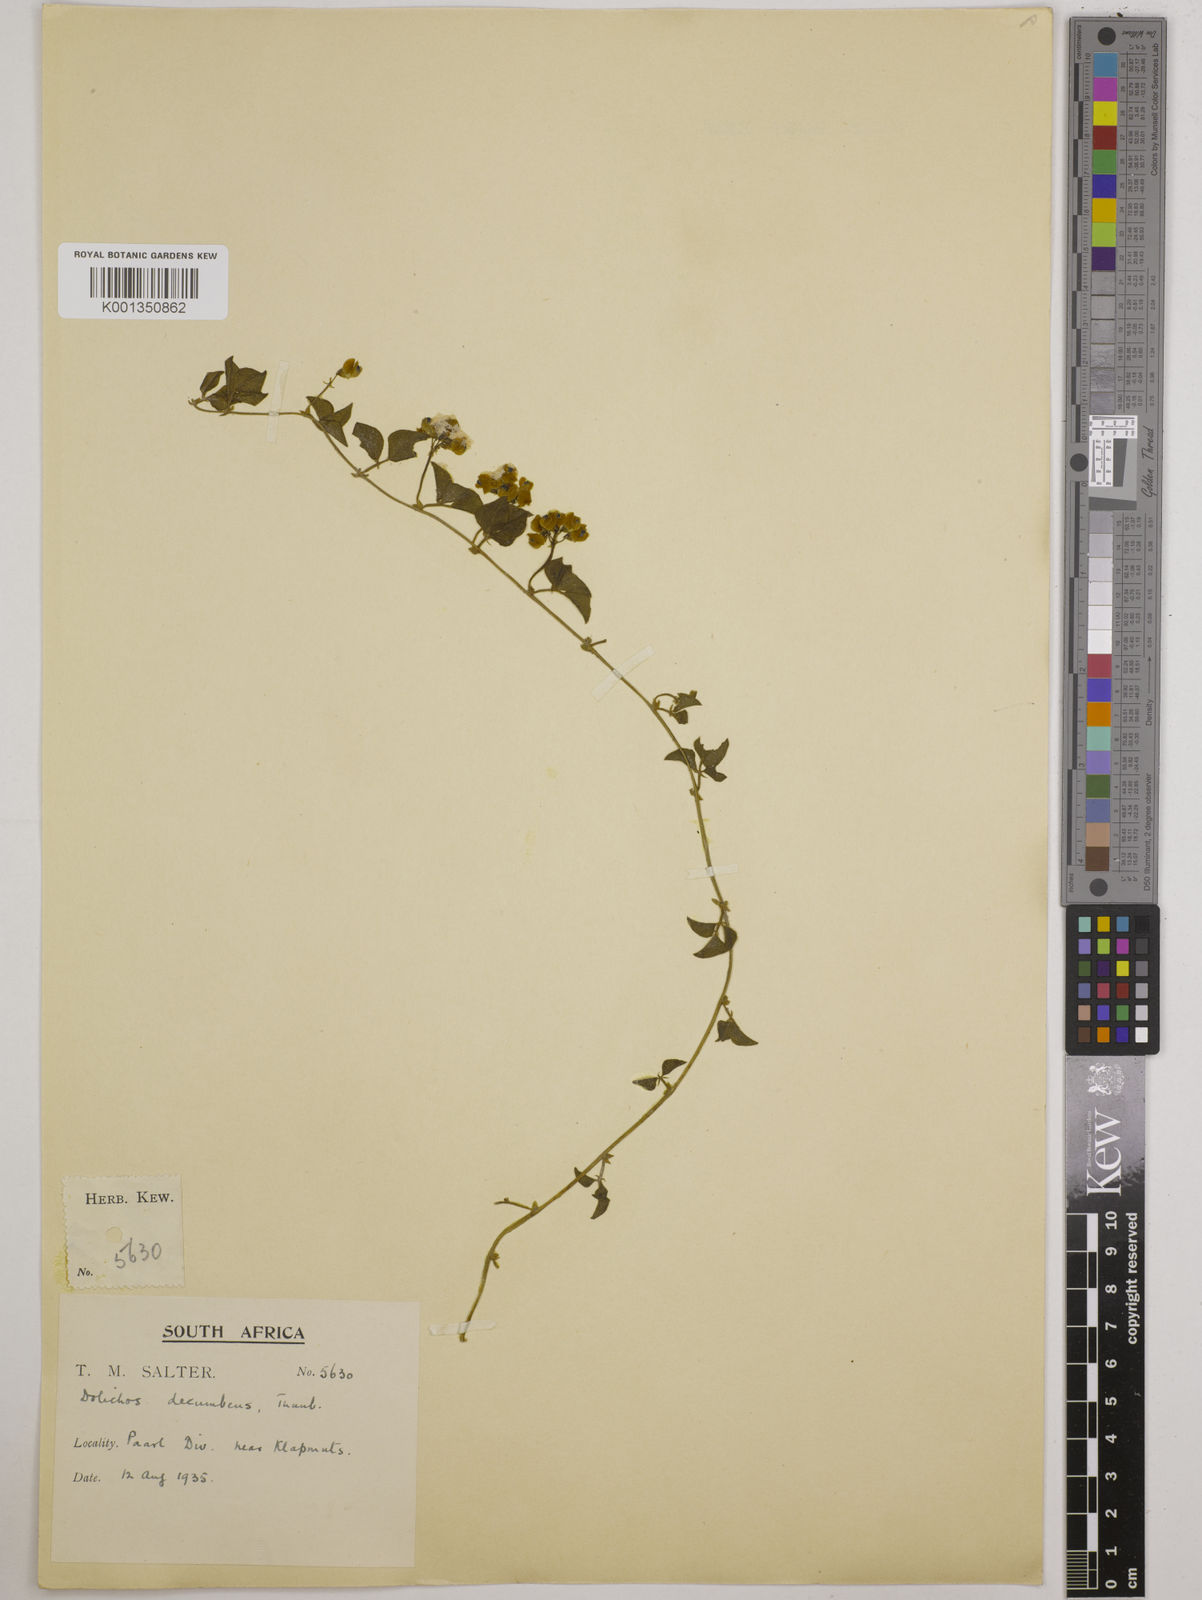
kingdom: Plantae
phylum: Tracheophyta
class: Magnoliopsida
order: Fabales
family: Fabaceae
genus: Dolichos
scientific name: Dolichos decumbens
